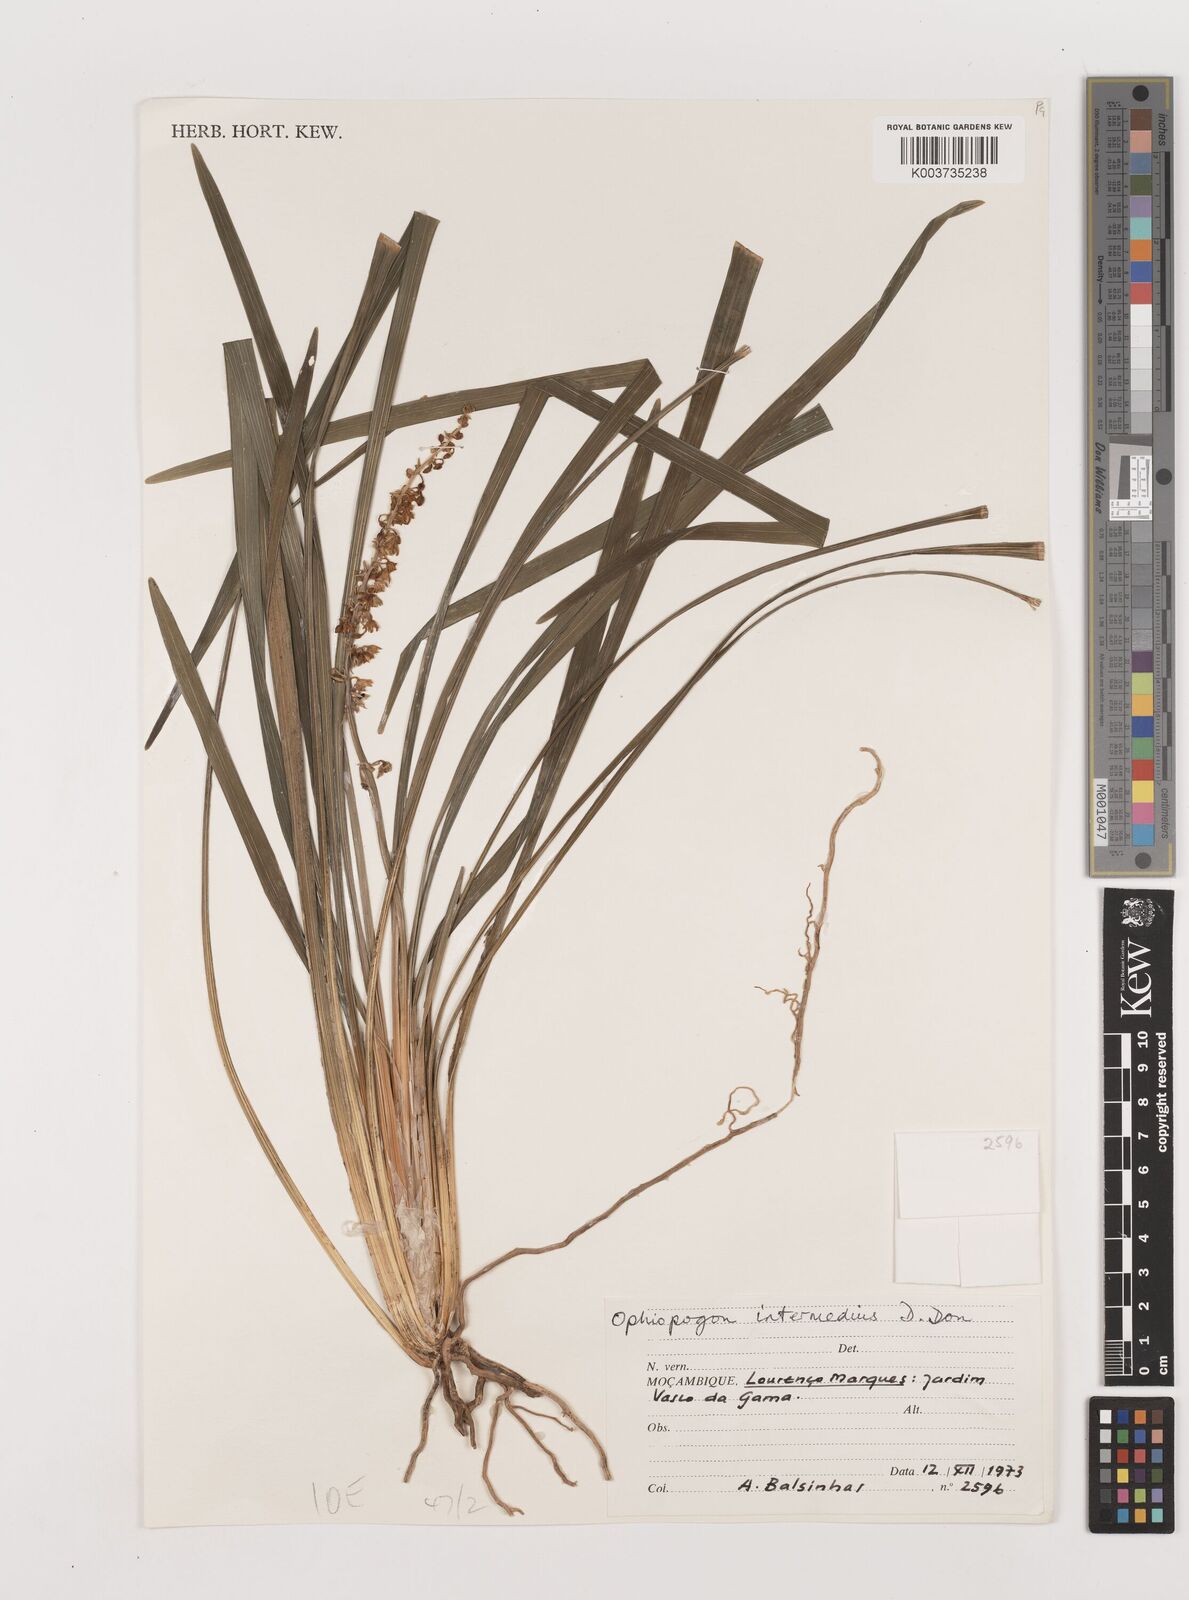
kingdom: Plantae
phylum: Tracheophyta
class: Liliopsida
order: Asparagales
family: Asparagaceae
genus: Ophiopogon
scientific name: Ophiopogon intermedius
